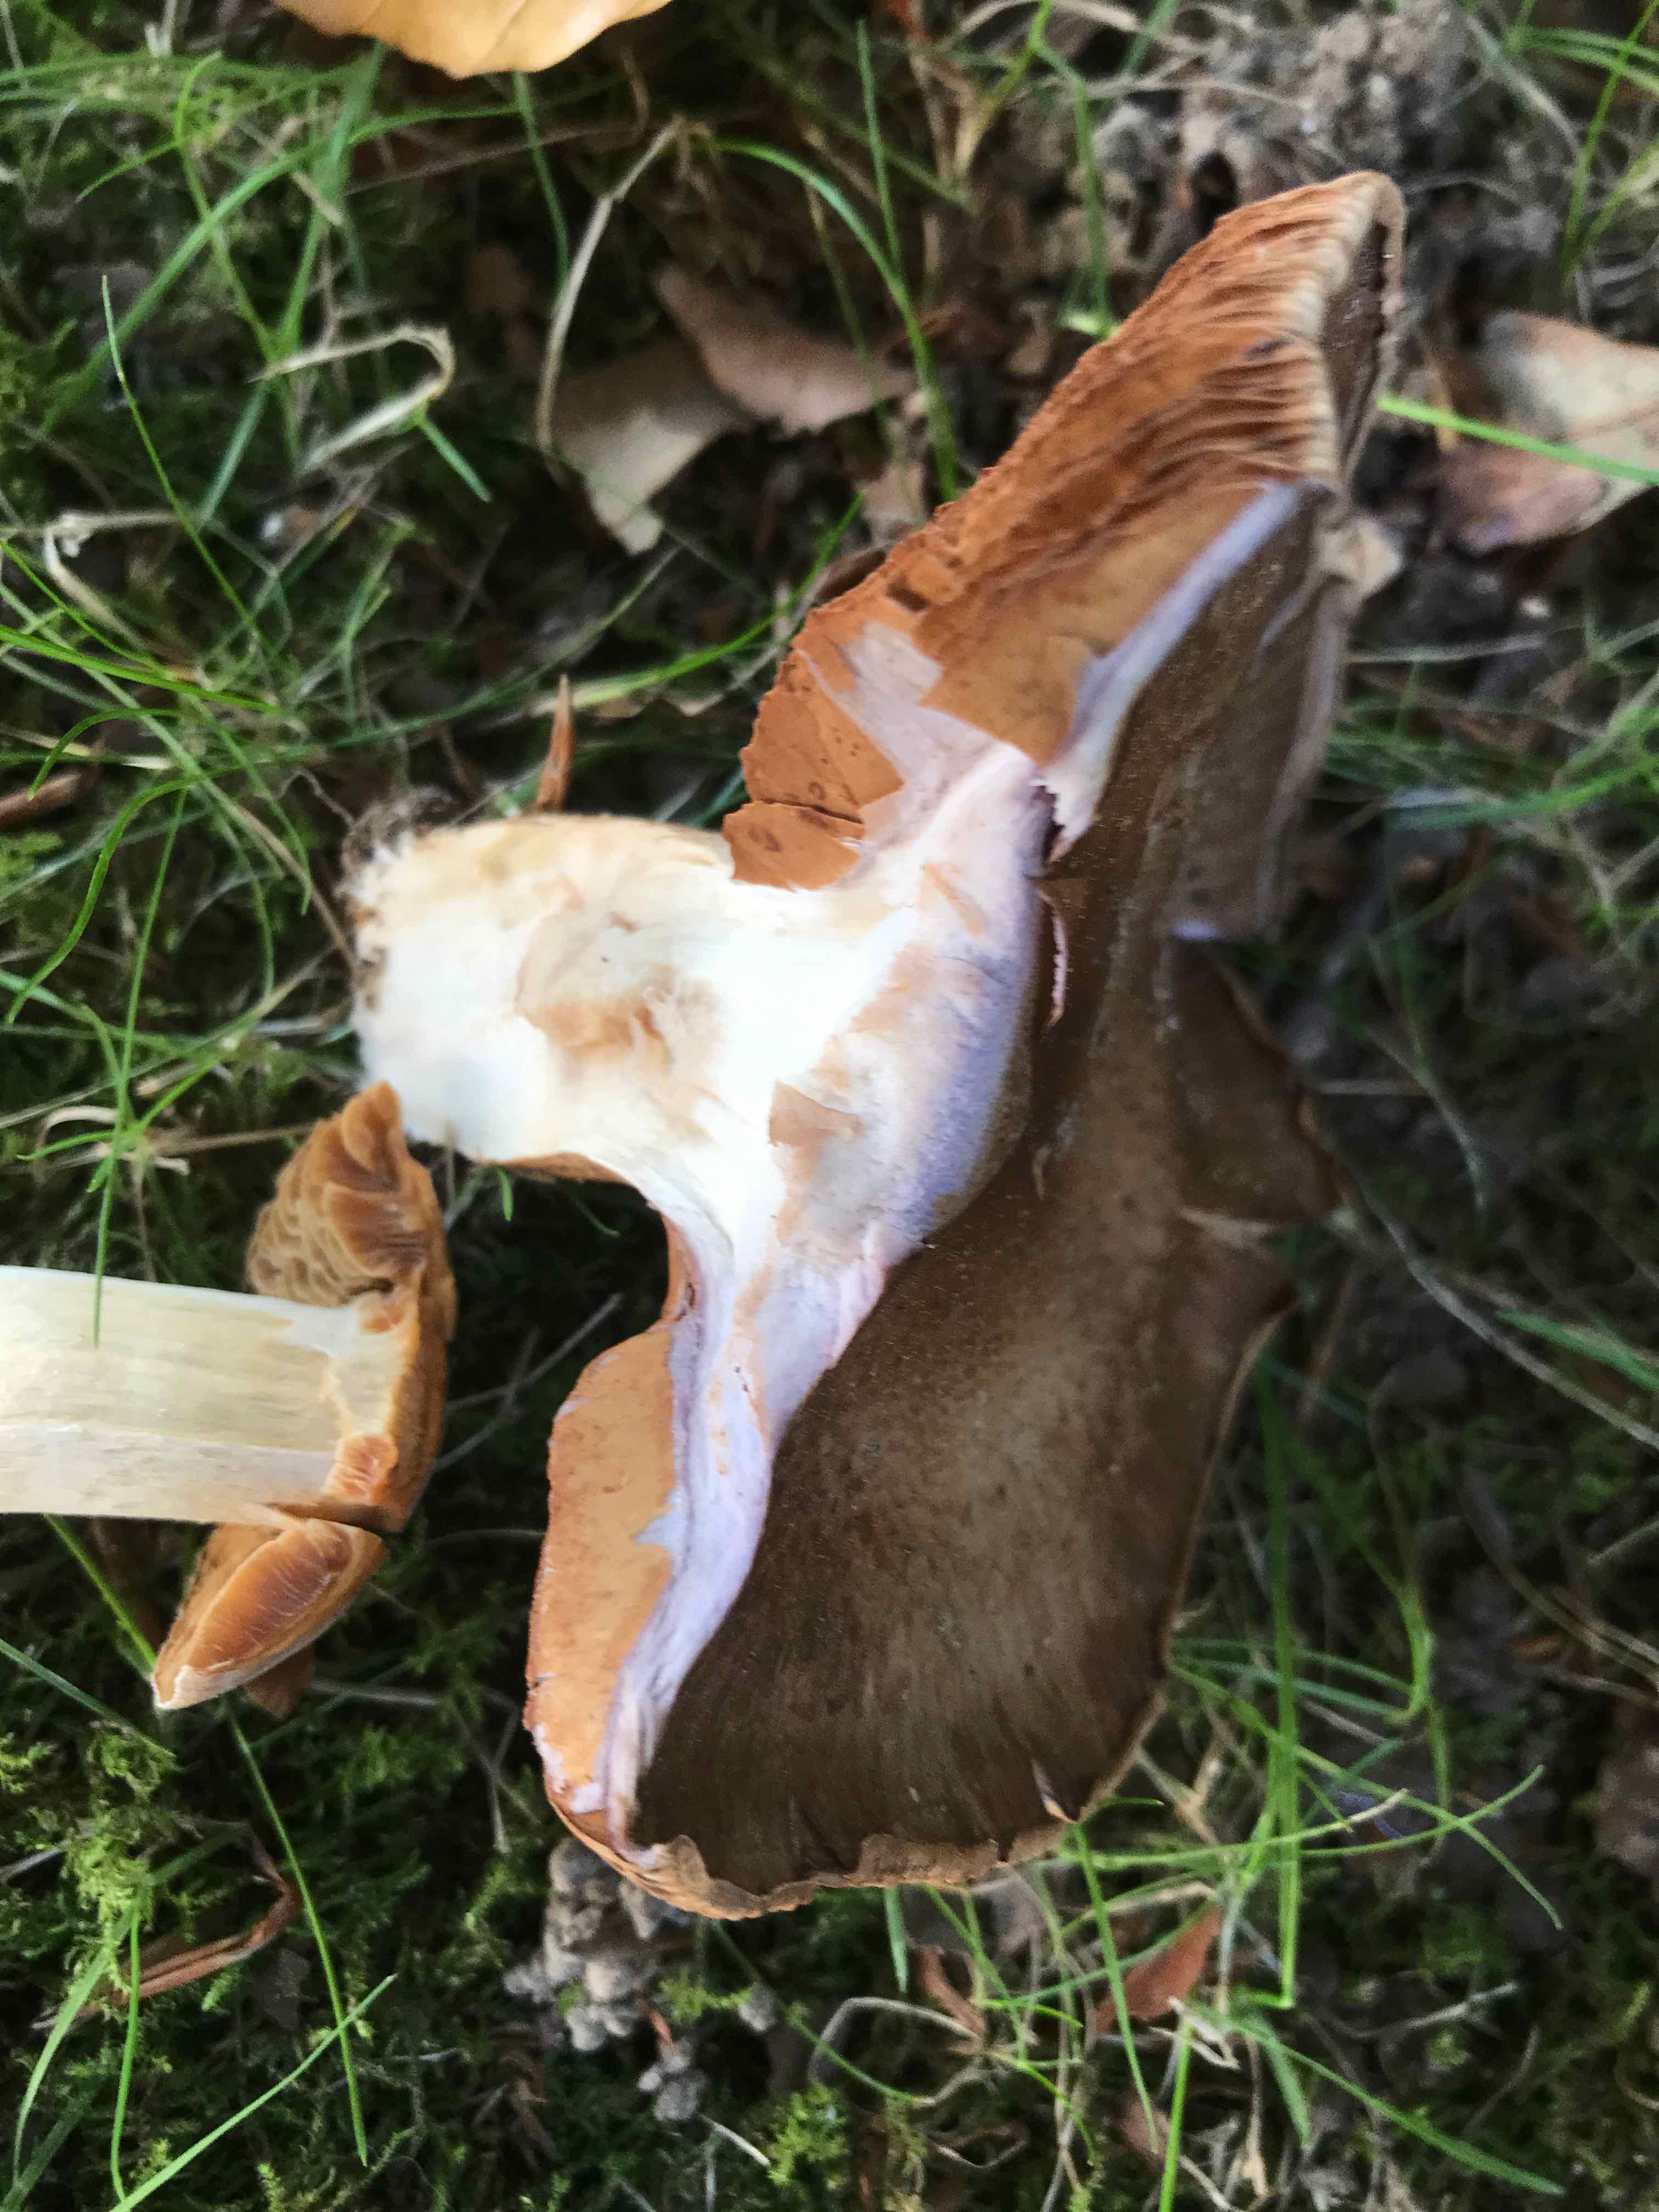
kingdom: Fungi
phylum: Basidiomycota
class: Agaricomycetes
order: Agaricales
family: Cortinariaceae
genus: Cortinarius
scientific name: Cortinarius
